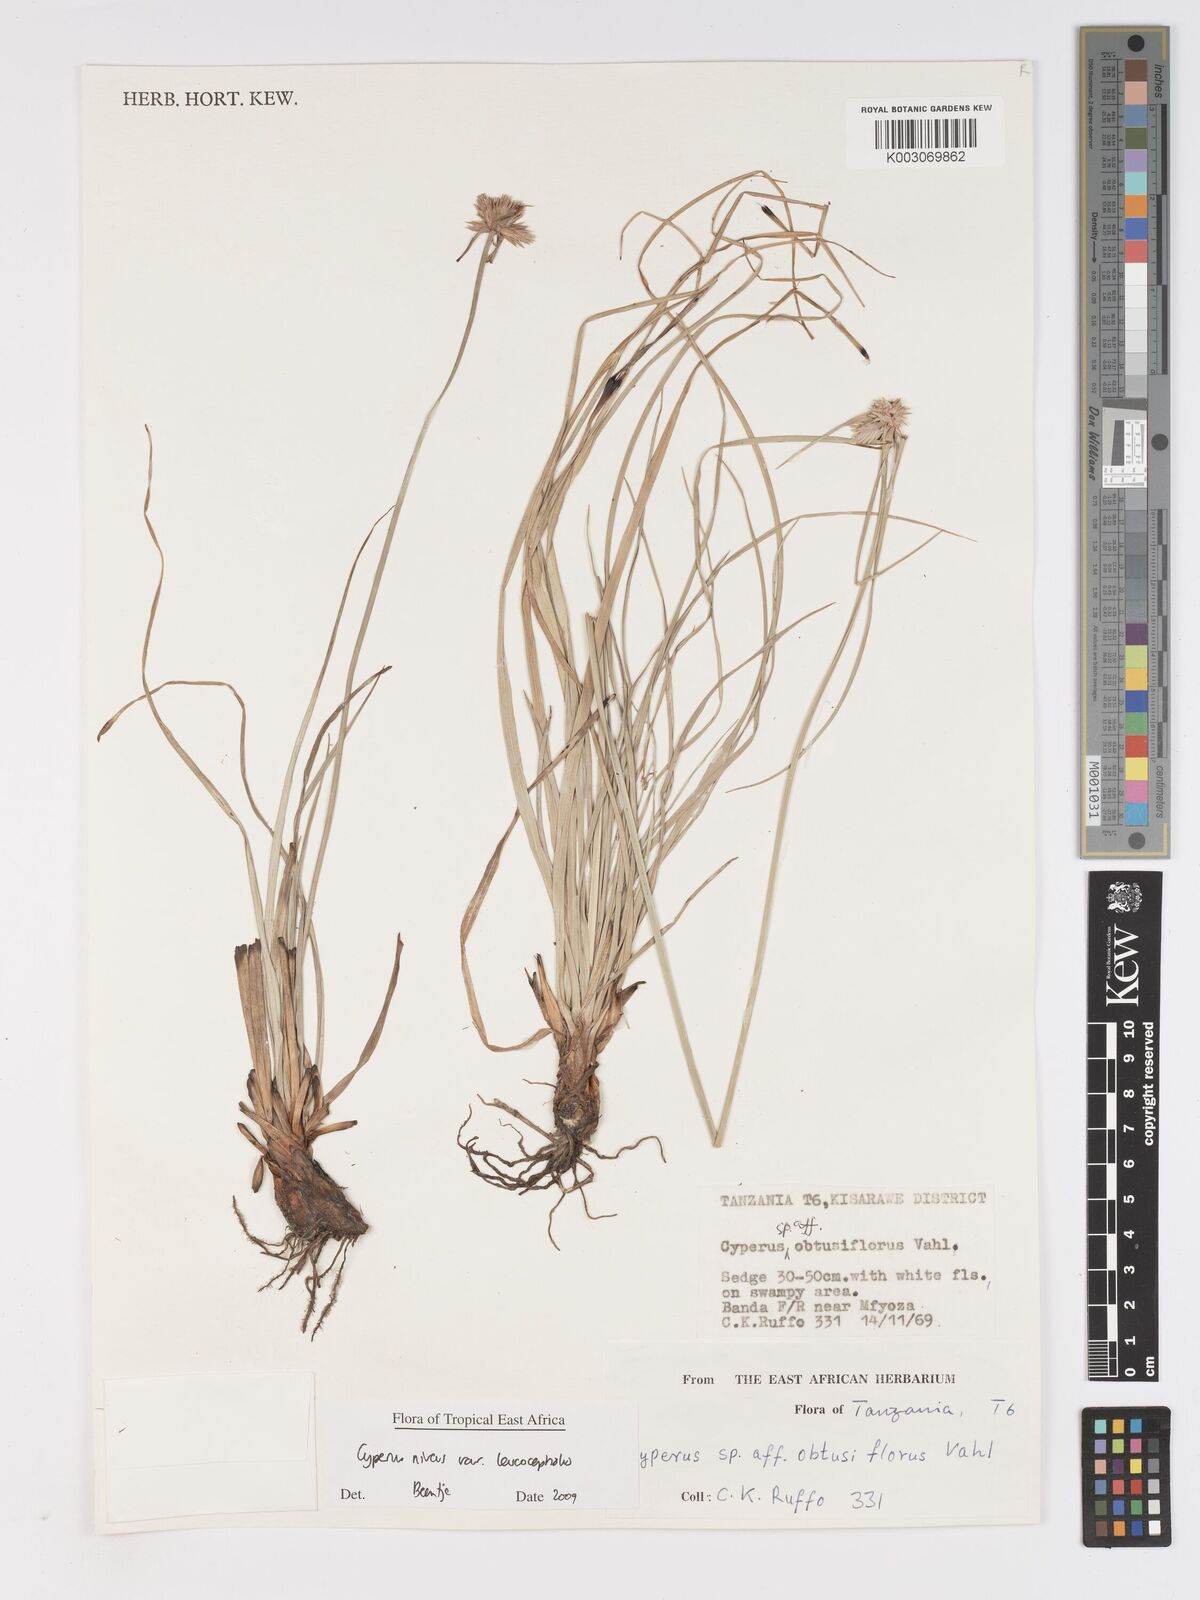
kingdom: Plantae
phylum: Tracheophyta
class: Liliopsida
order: Poales
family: Cyperaceae
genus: Cyperus
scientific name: Cyperus niveus
